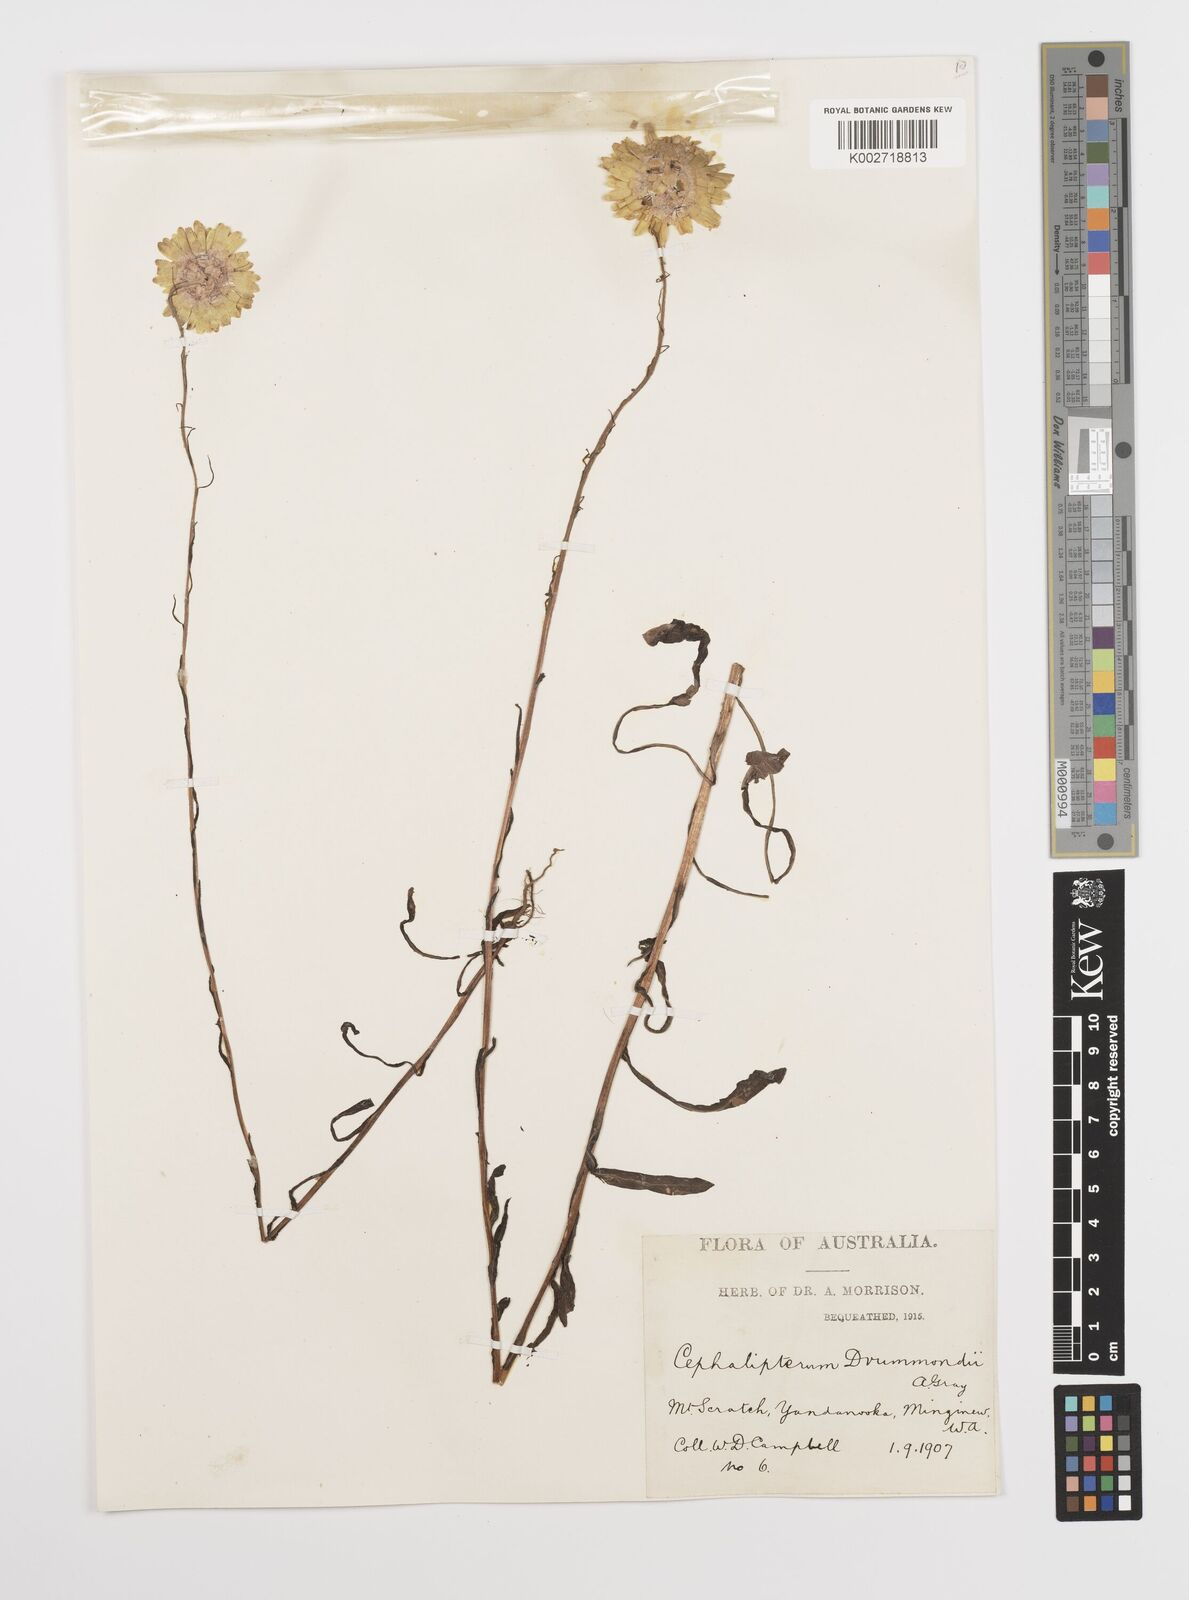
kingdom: Plantae
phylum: Tracheophyta
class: Magnoliopsida
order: Asterales
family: Asteraceae
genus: Cephalipterum
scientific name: Cephalipterum drummondii
